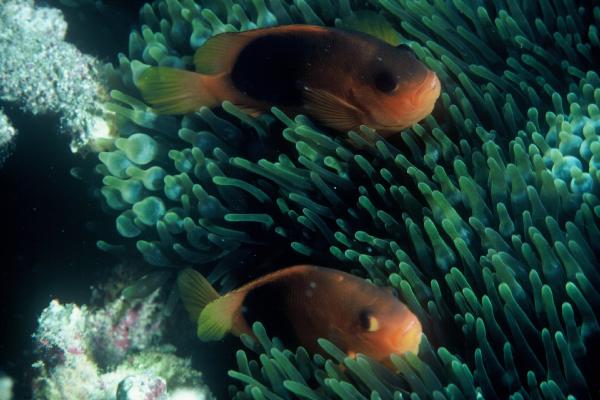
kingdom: Animalia
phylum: Chordata
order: Perciformes
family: Pomacentridae
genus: Amphiprion
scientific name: Amphiprion ephippium
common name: Red saddleback anemonefish
